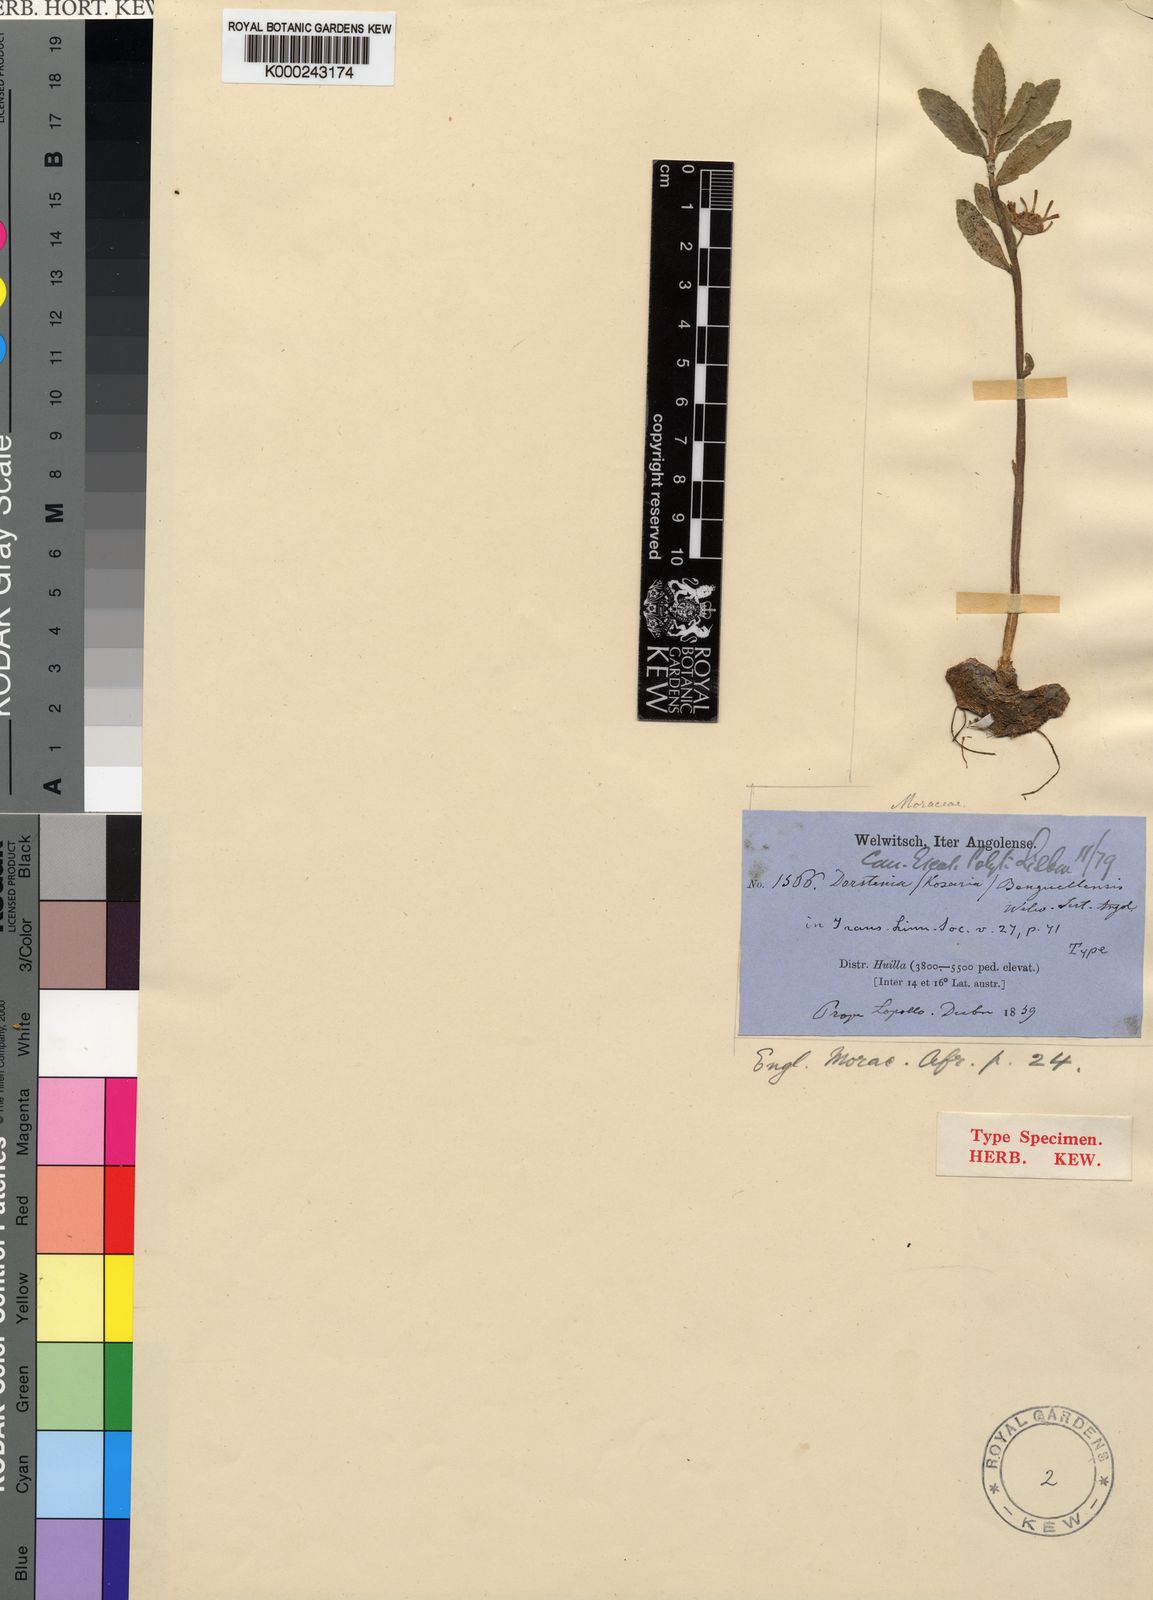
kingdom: Plantae
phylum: Tracheophyta
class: Magnoliopsida
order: Rosales
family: Moraceae
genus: Dorstenia
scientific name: Dorstenia benguellensis
